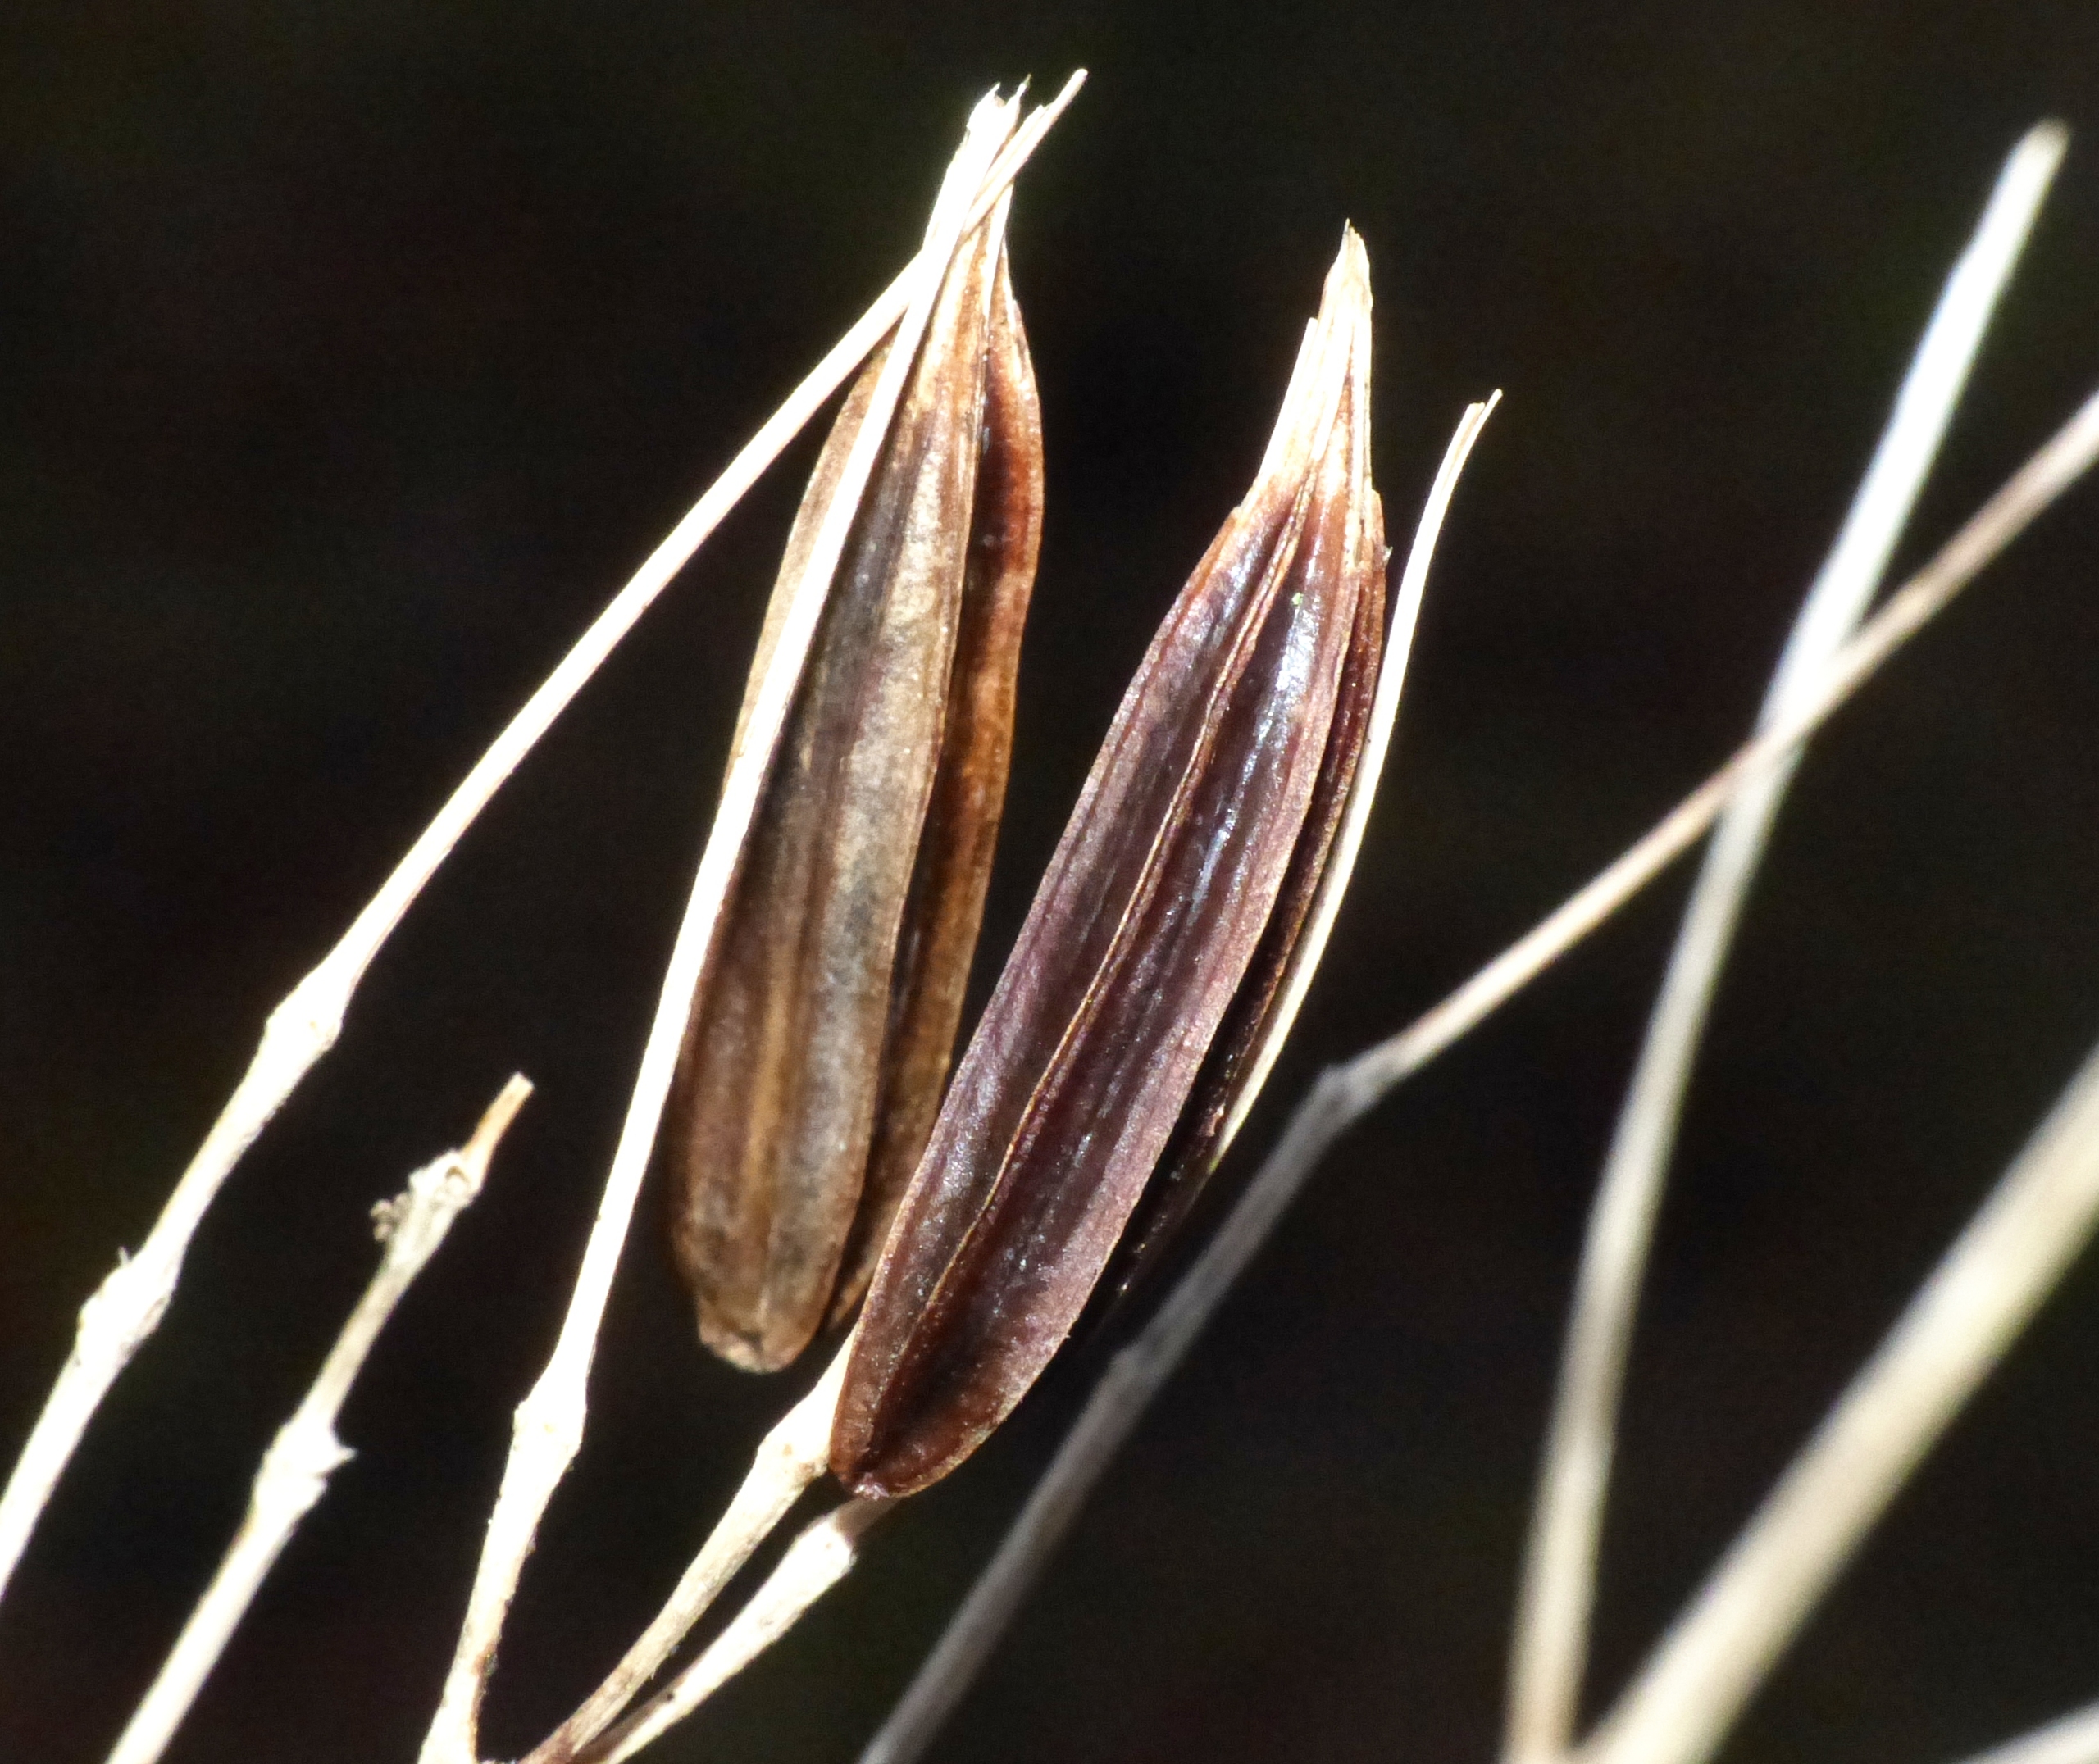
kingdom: Plantae
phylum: Tracheophyta
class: Magnoliopsida
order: Apiales
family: Apiaceae
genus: Myrrhis
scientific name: Myrrhis odorata
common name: Sødskærm
